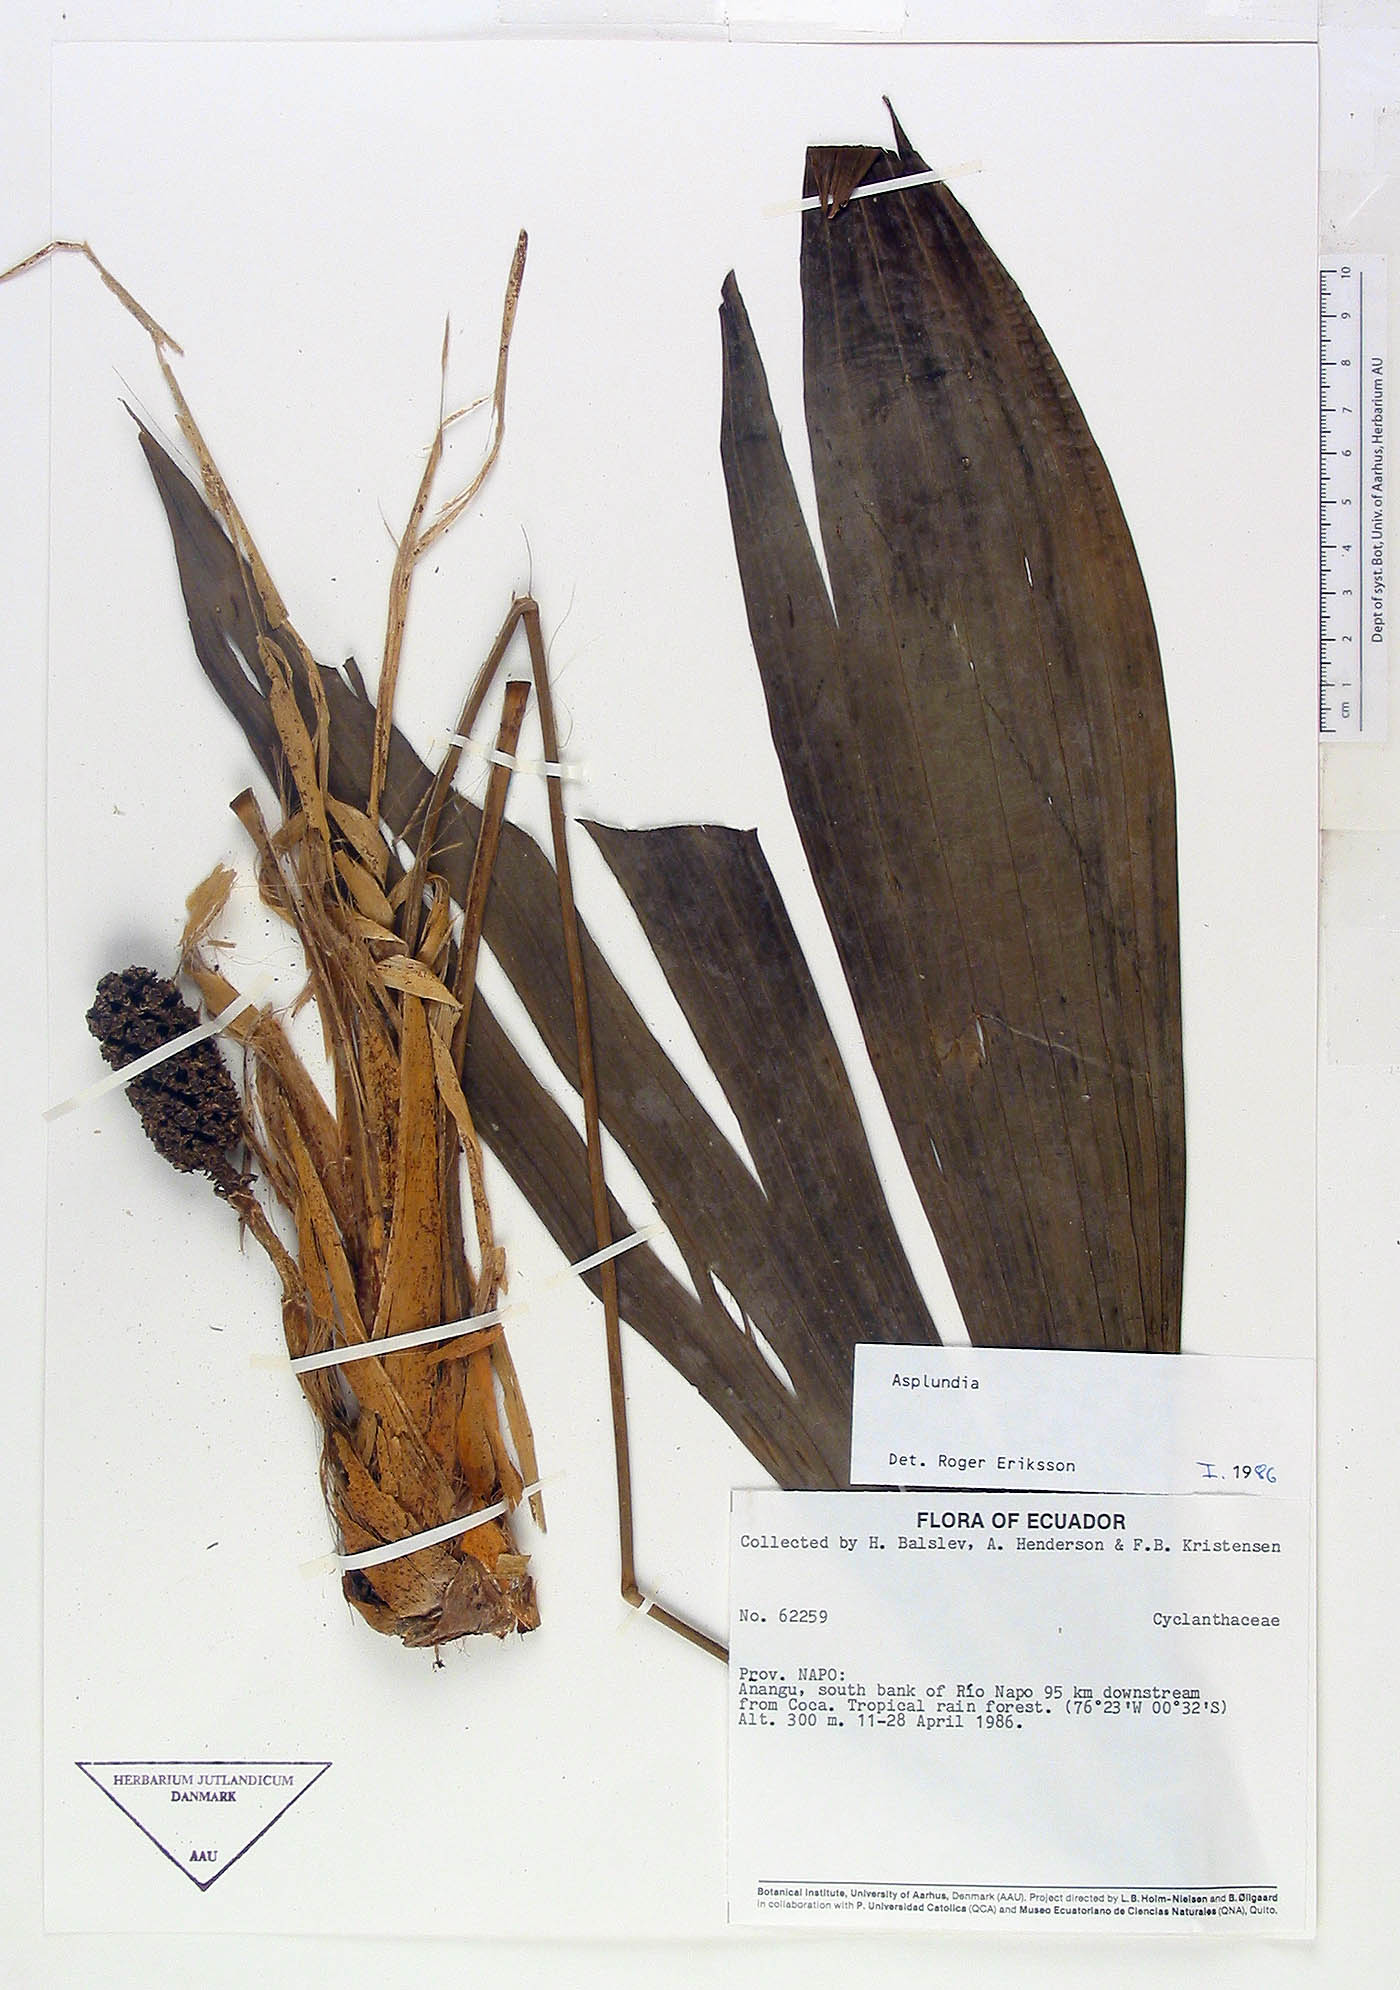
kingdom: Plantae
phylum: Tracheophyta
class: Liliopsida
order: Pandanales
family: Cyclanthaceae
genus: Asplundia
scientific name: Asplundia
